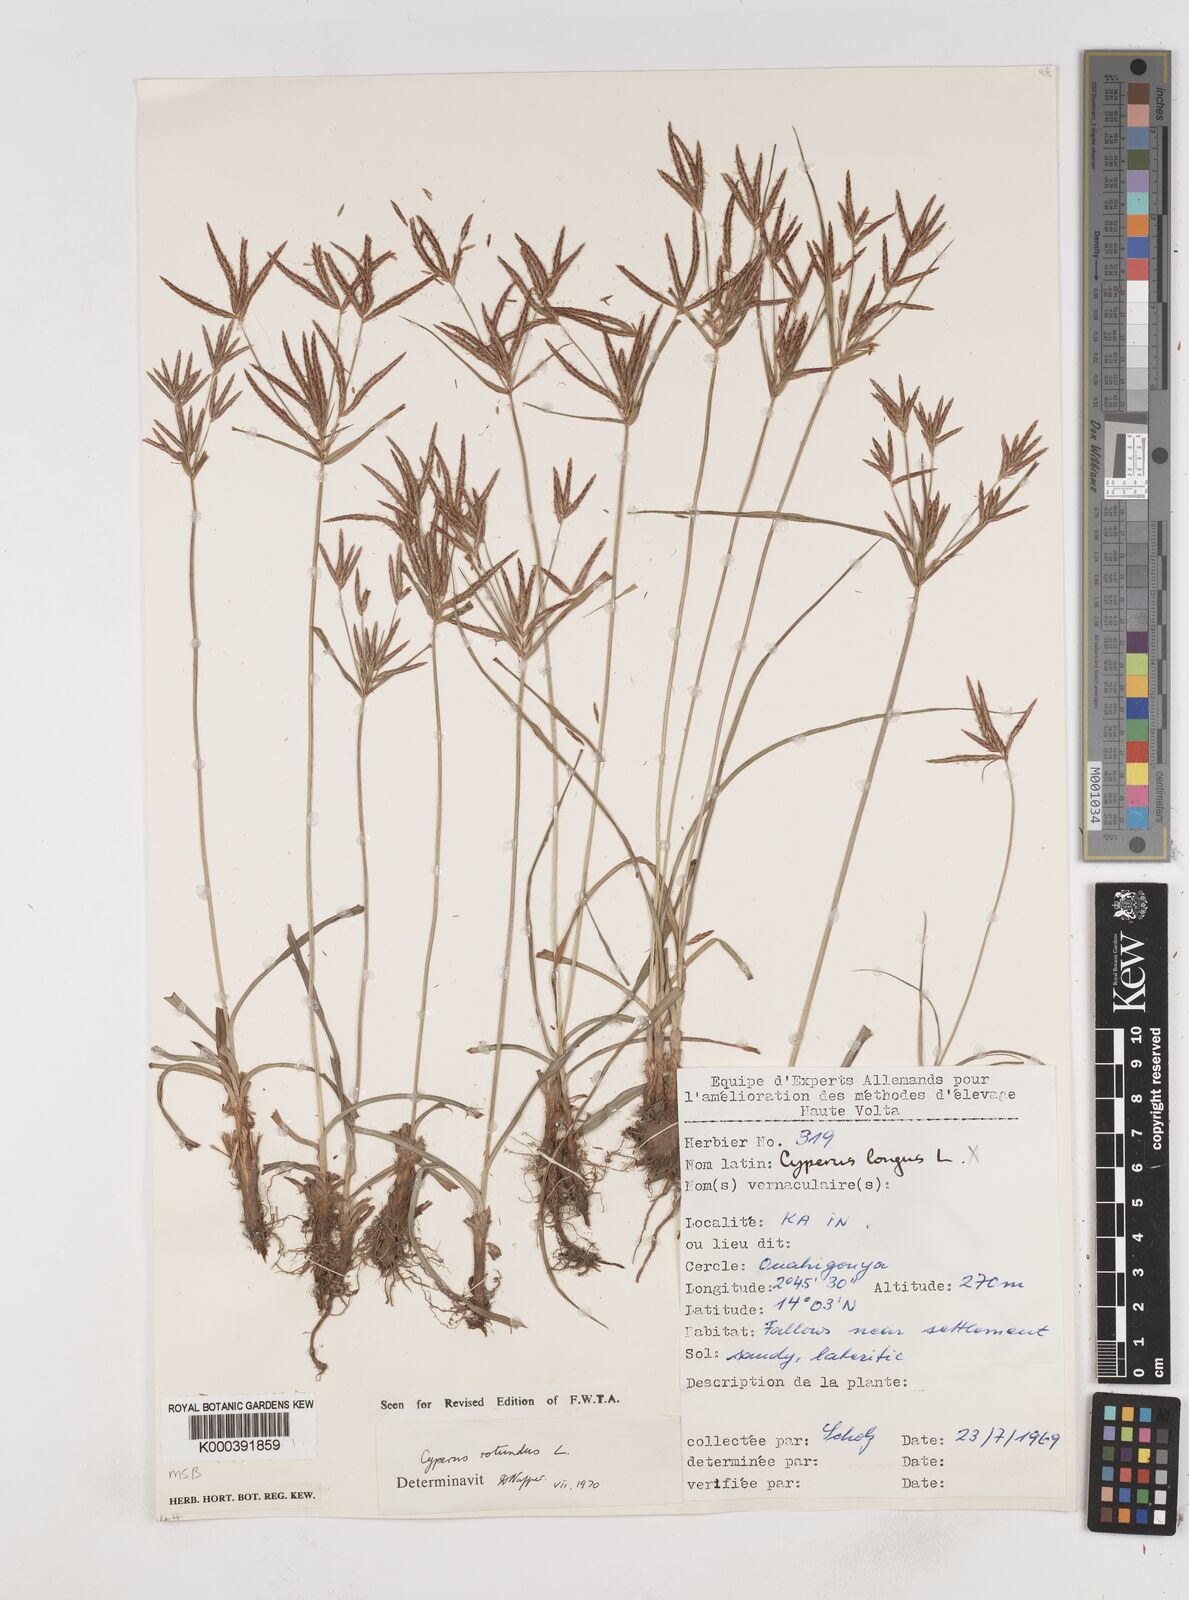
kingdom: Plantae
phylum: Tracheophyta
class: Liliopsida
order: Poales
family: Cyperaceae
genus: Cyperus
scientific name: Cyperus rotundus
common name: Nutgrass
